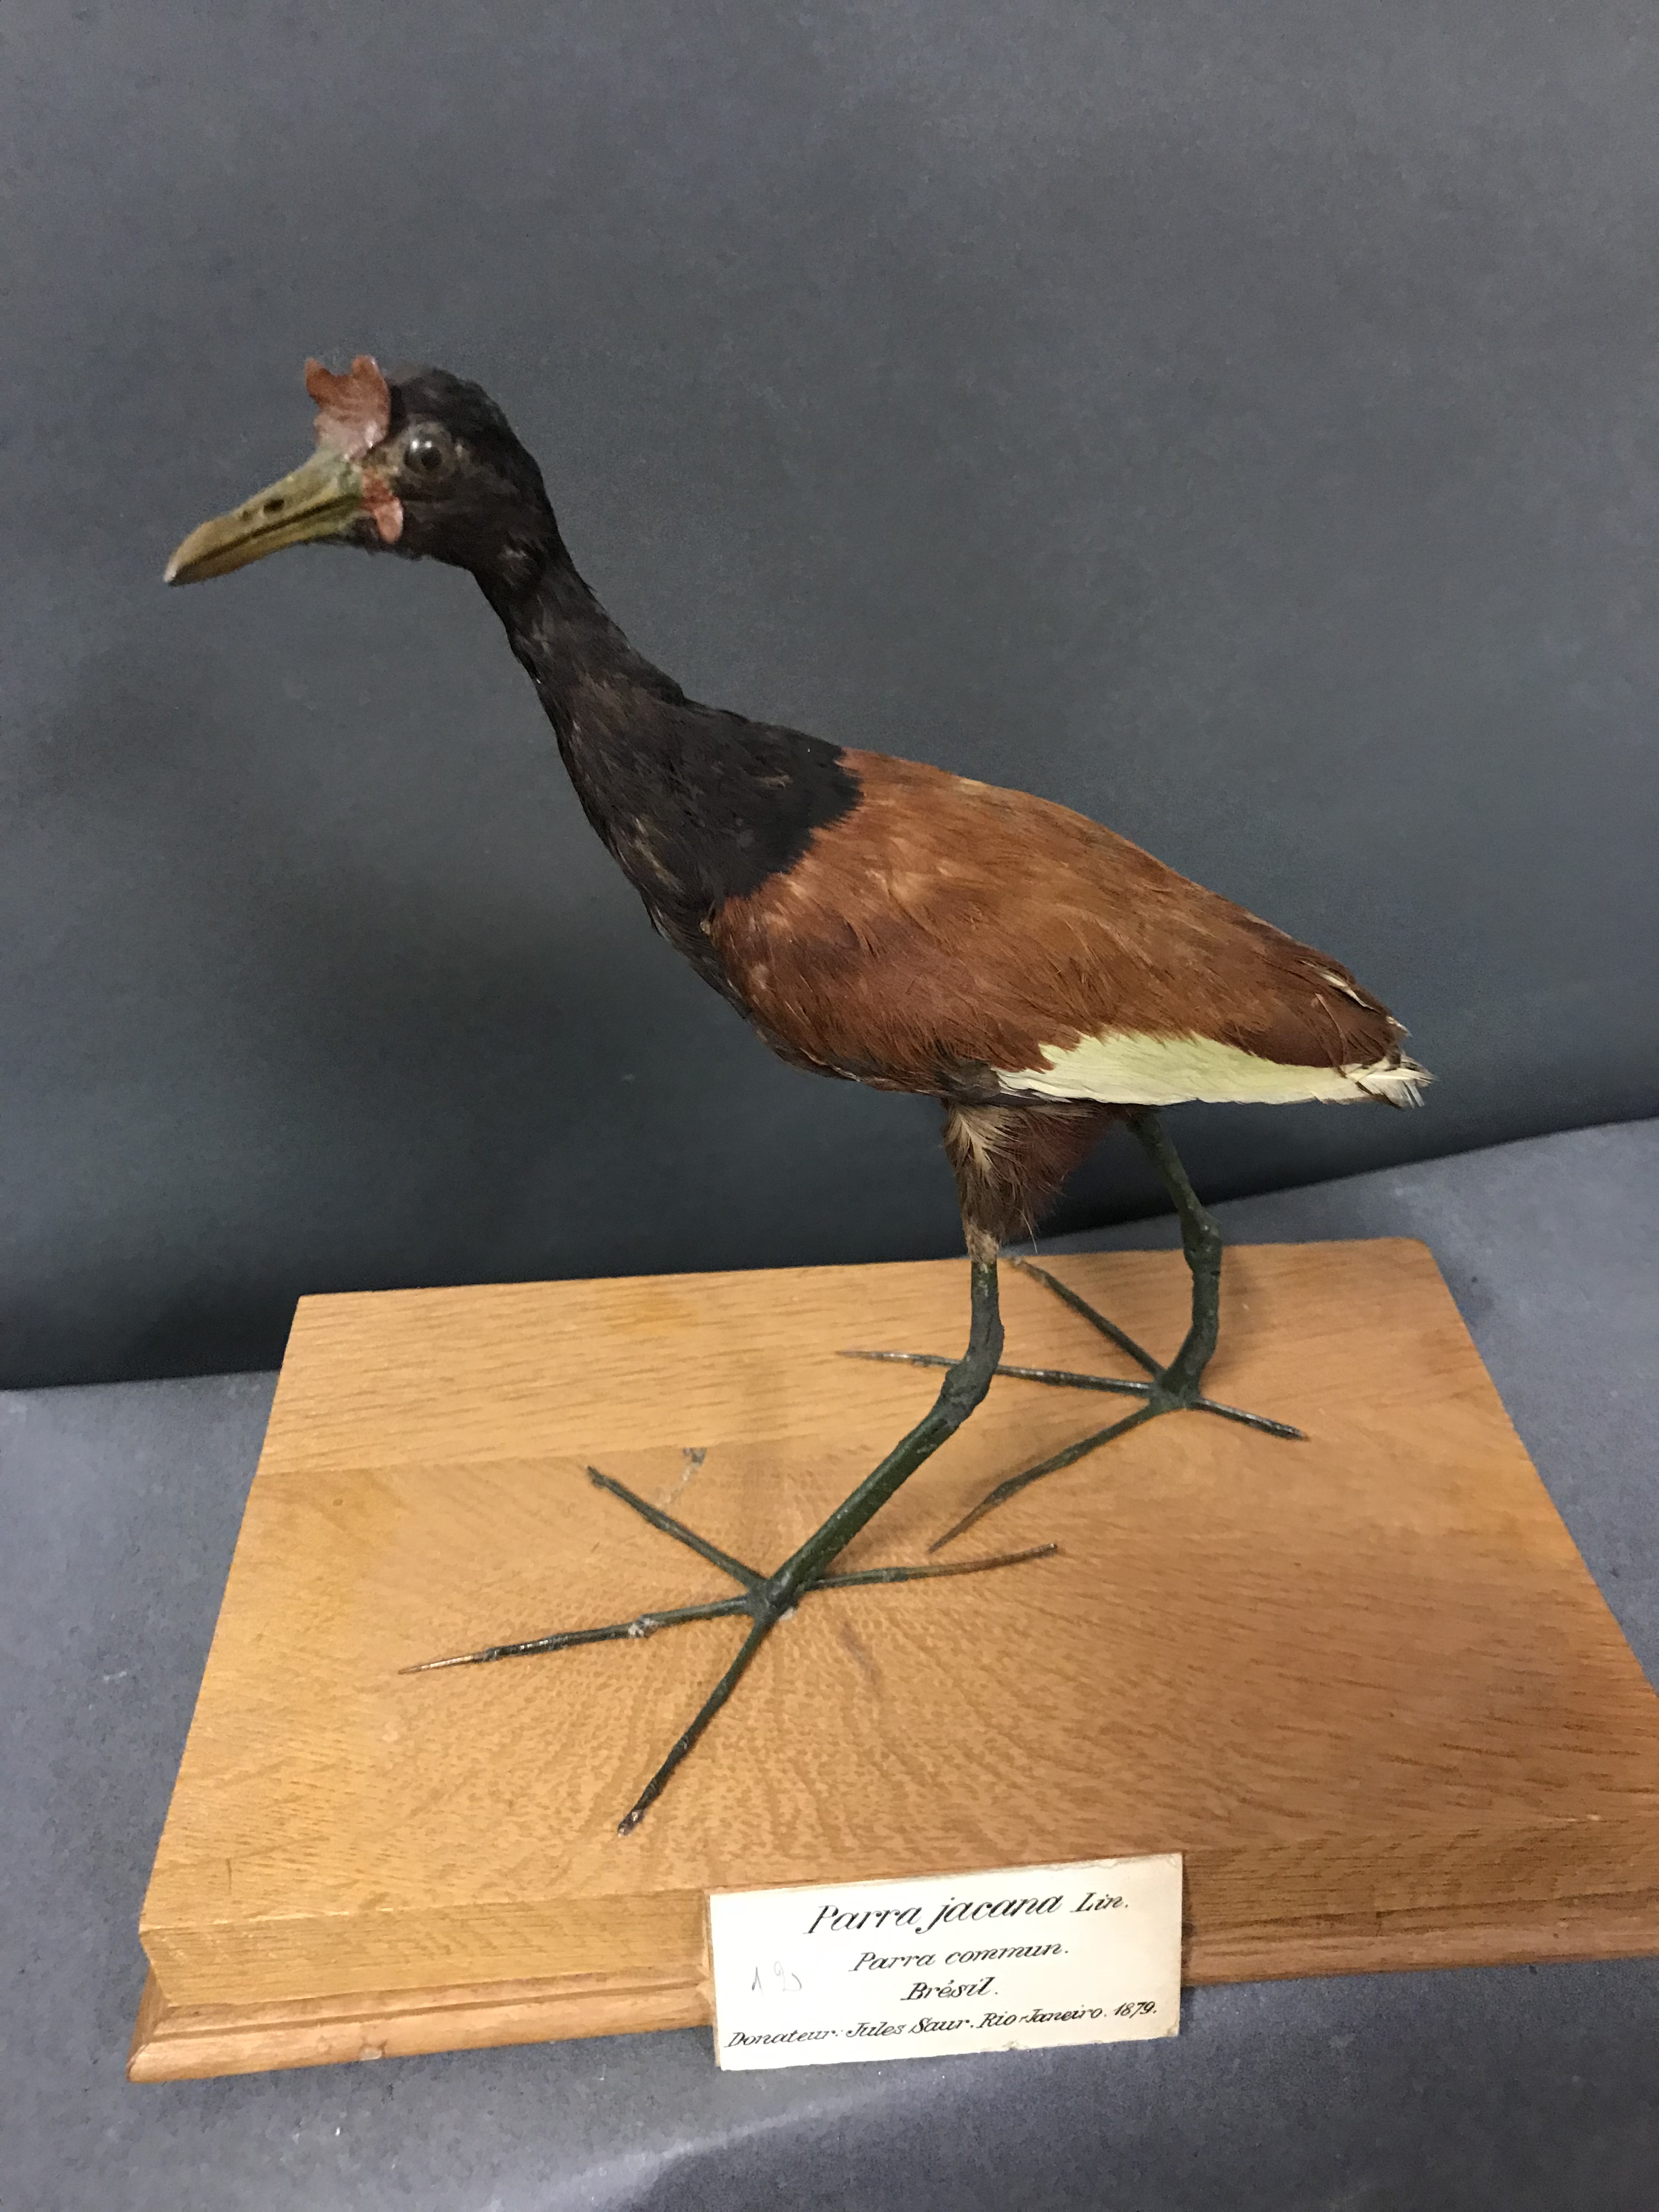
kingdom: Animalia
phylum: Chordata
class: Aves
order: Charadriiformes
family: Jacanidae
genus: Jacana
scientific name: Jacana jacana
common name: Wattled jacana
